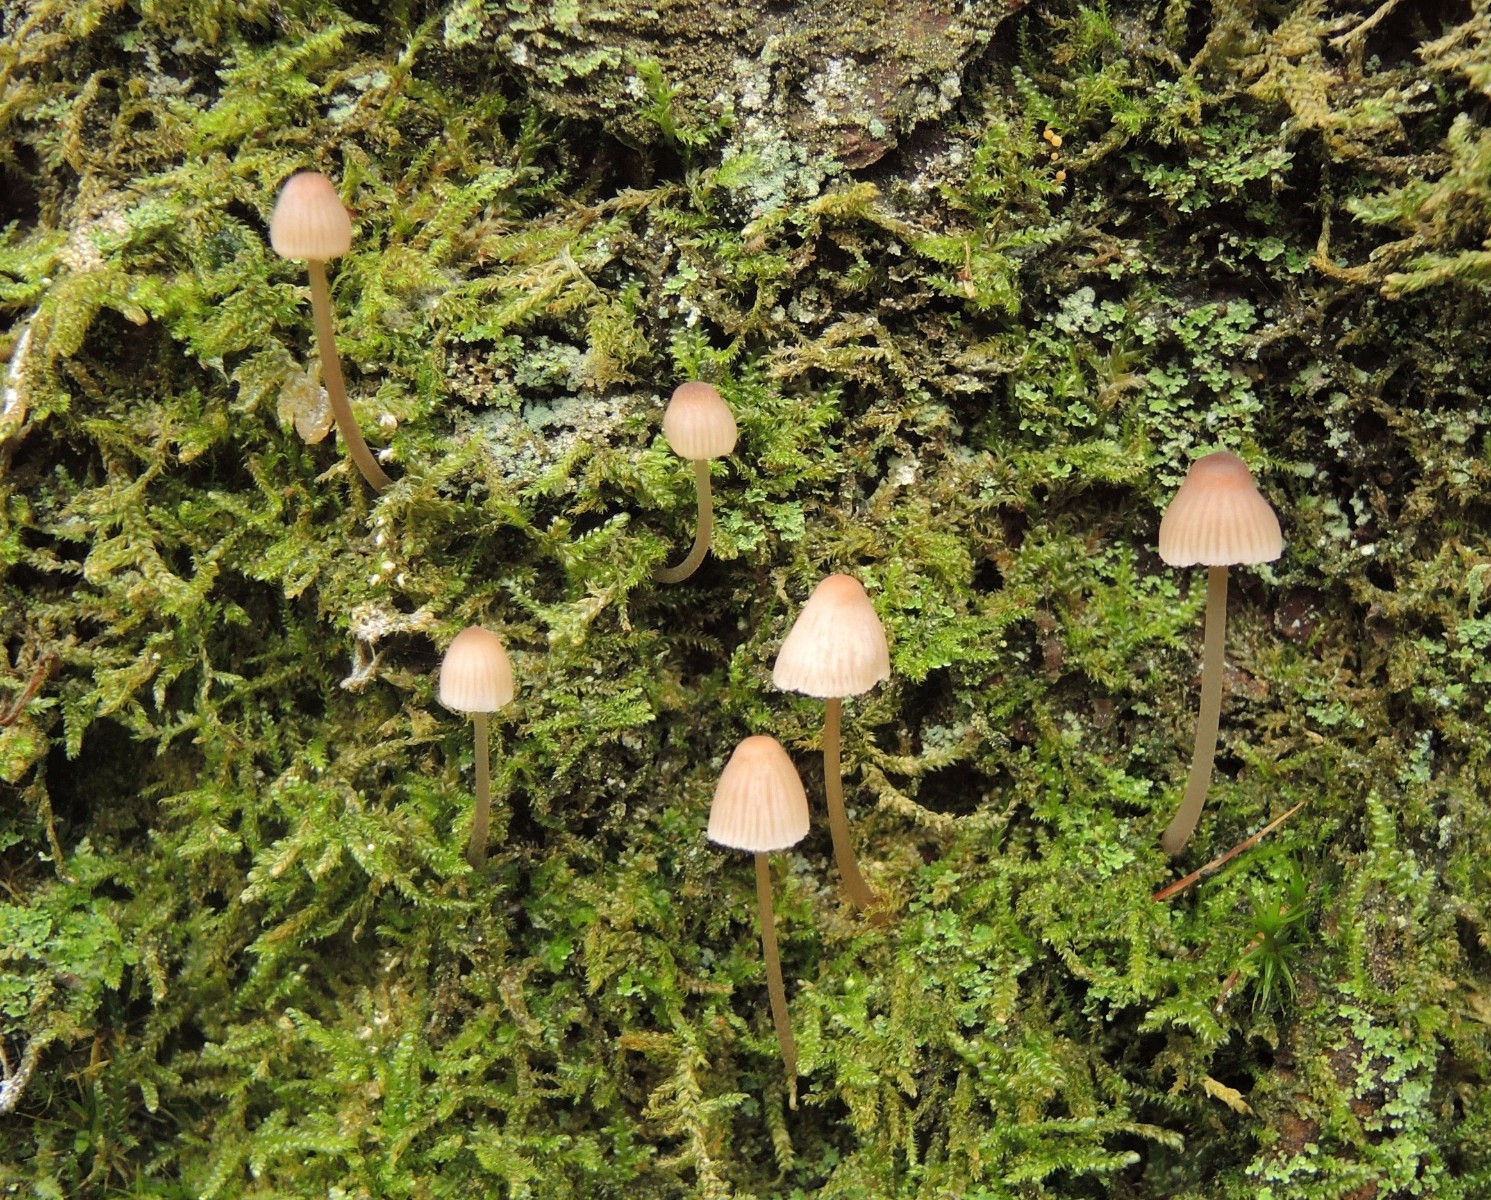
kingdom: Fungi
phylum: Basidiomycota
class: Agaricomycetes
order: Agaricales
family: Mycenaceae
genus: Mycena
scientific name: Mycena metata
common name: rødlig huesvamp
